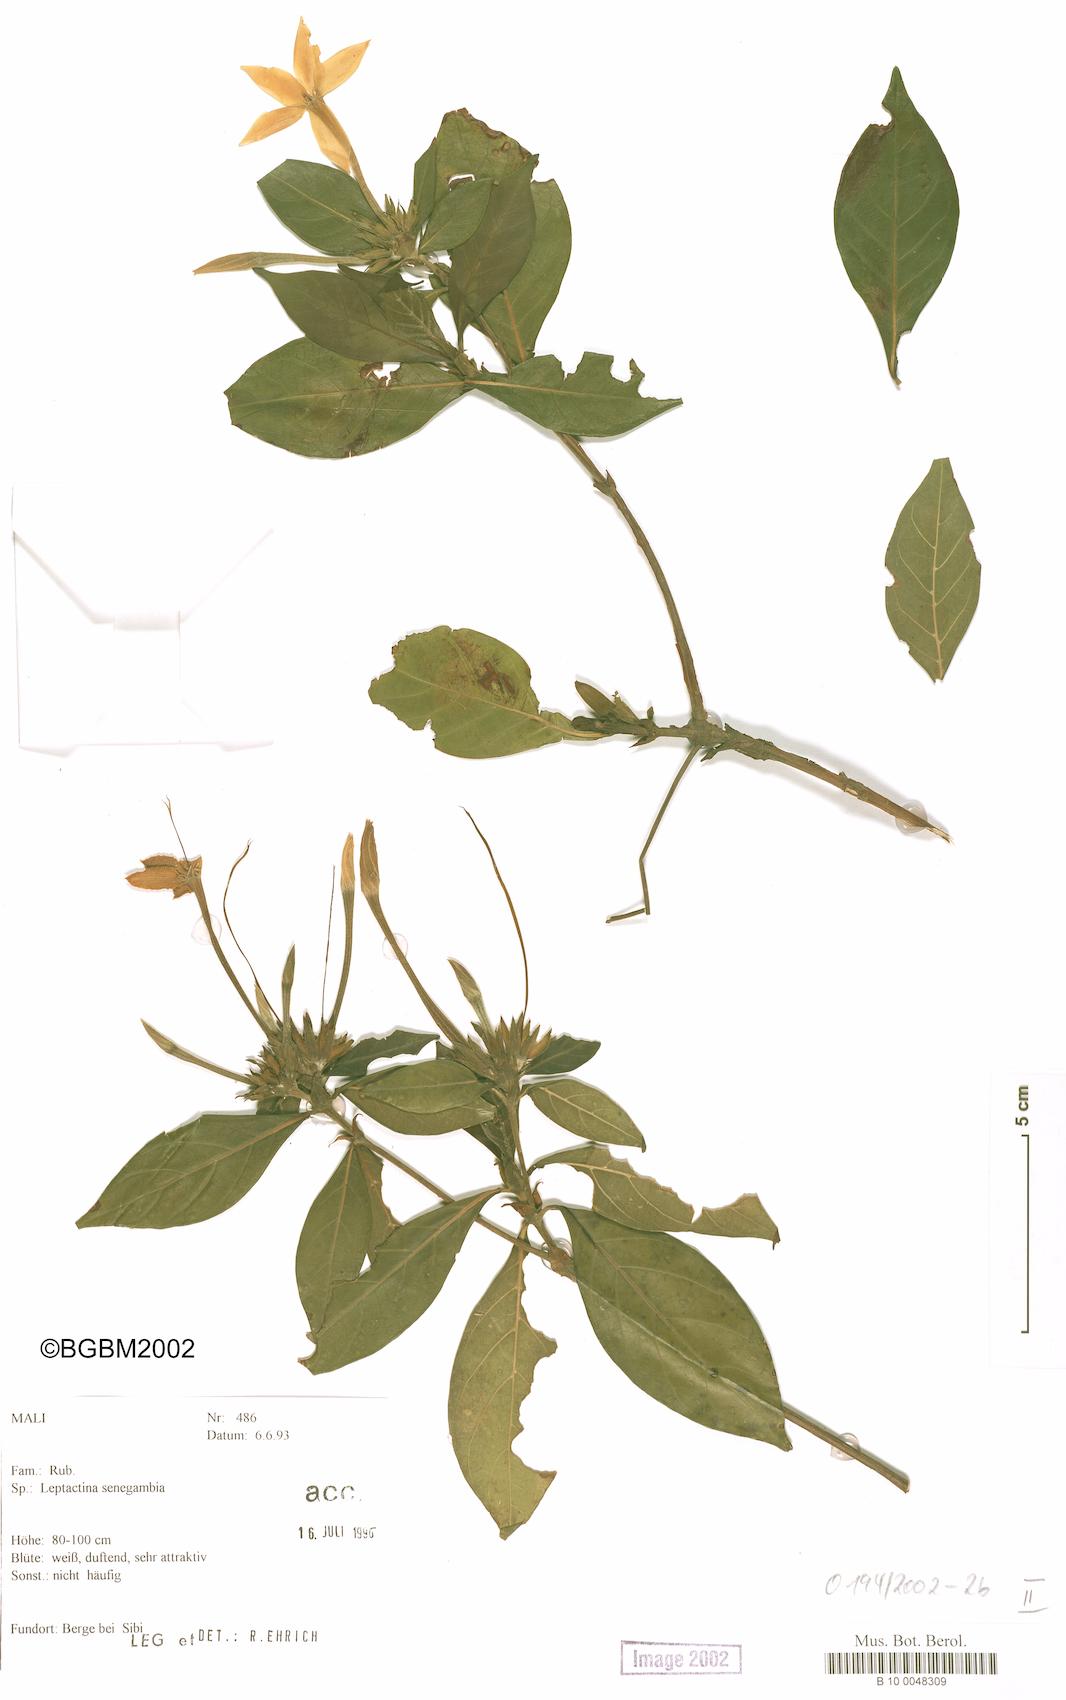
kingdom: Plantae
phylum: Tracheophyta
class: Magnoliopsida
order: Gentianales
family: Rubiaceae
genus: Leptactina
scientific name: Leptactina senegambica
